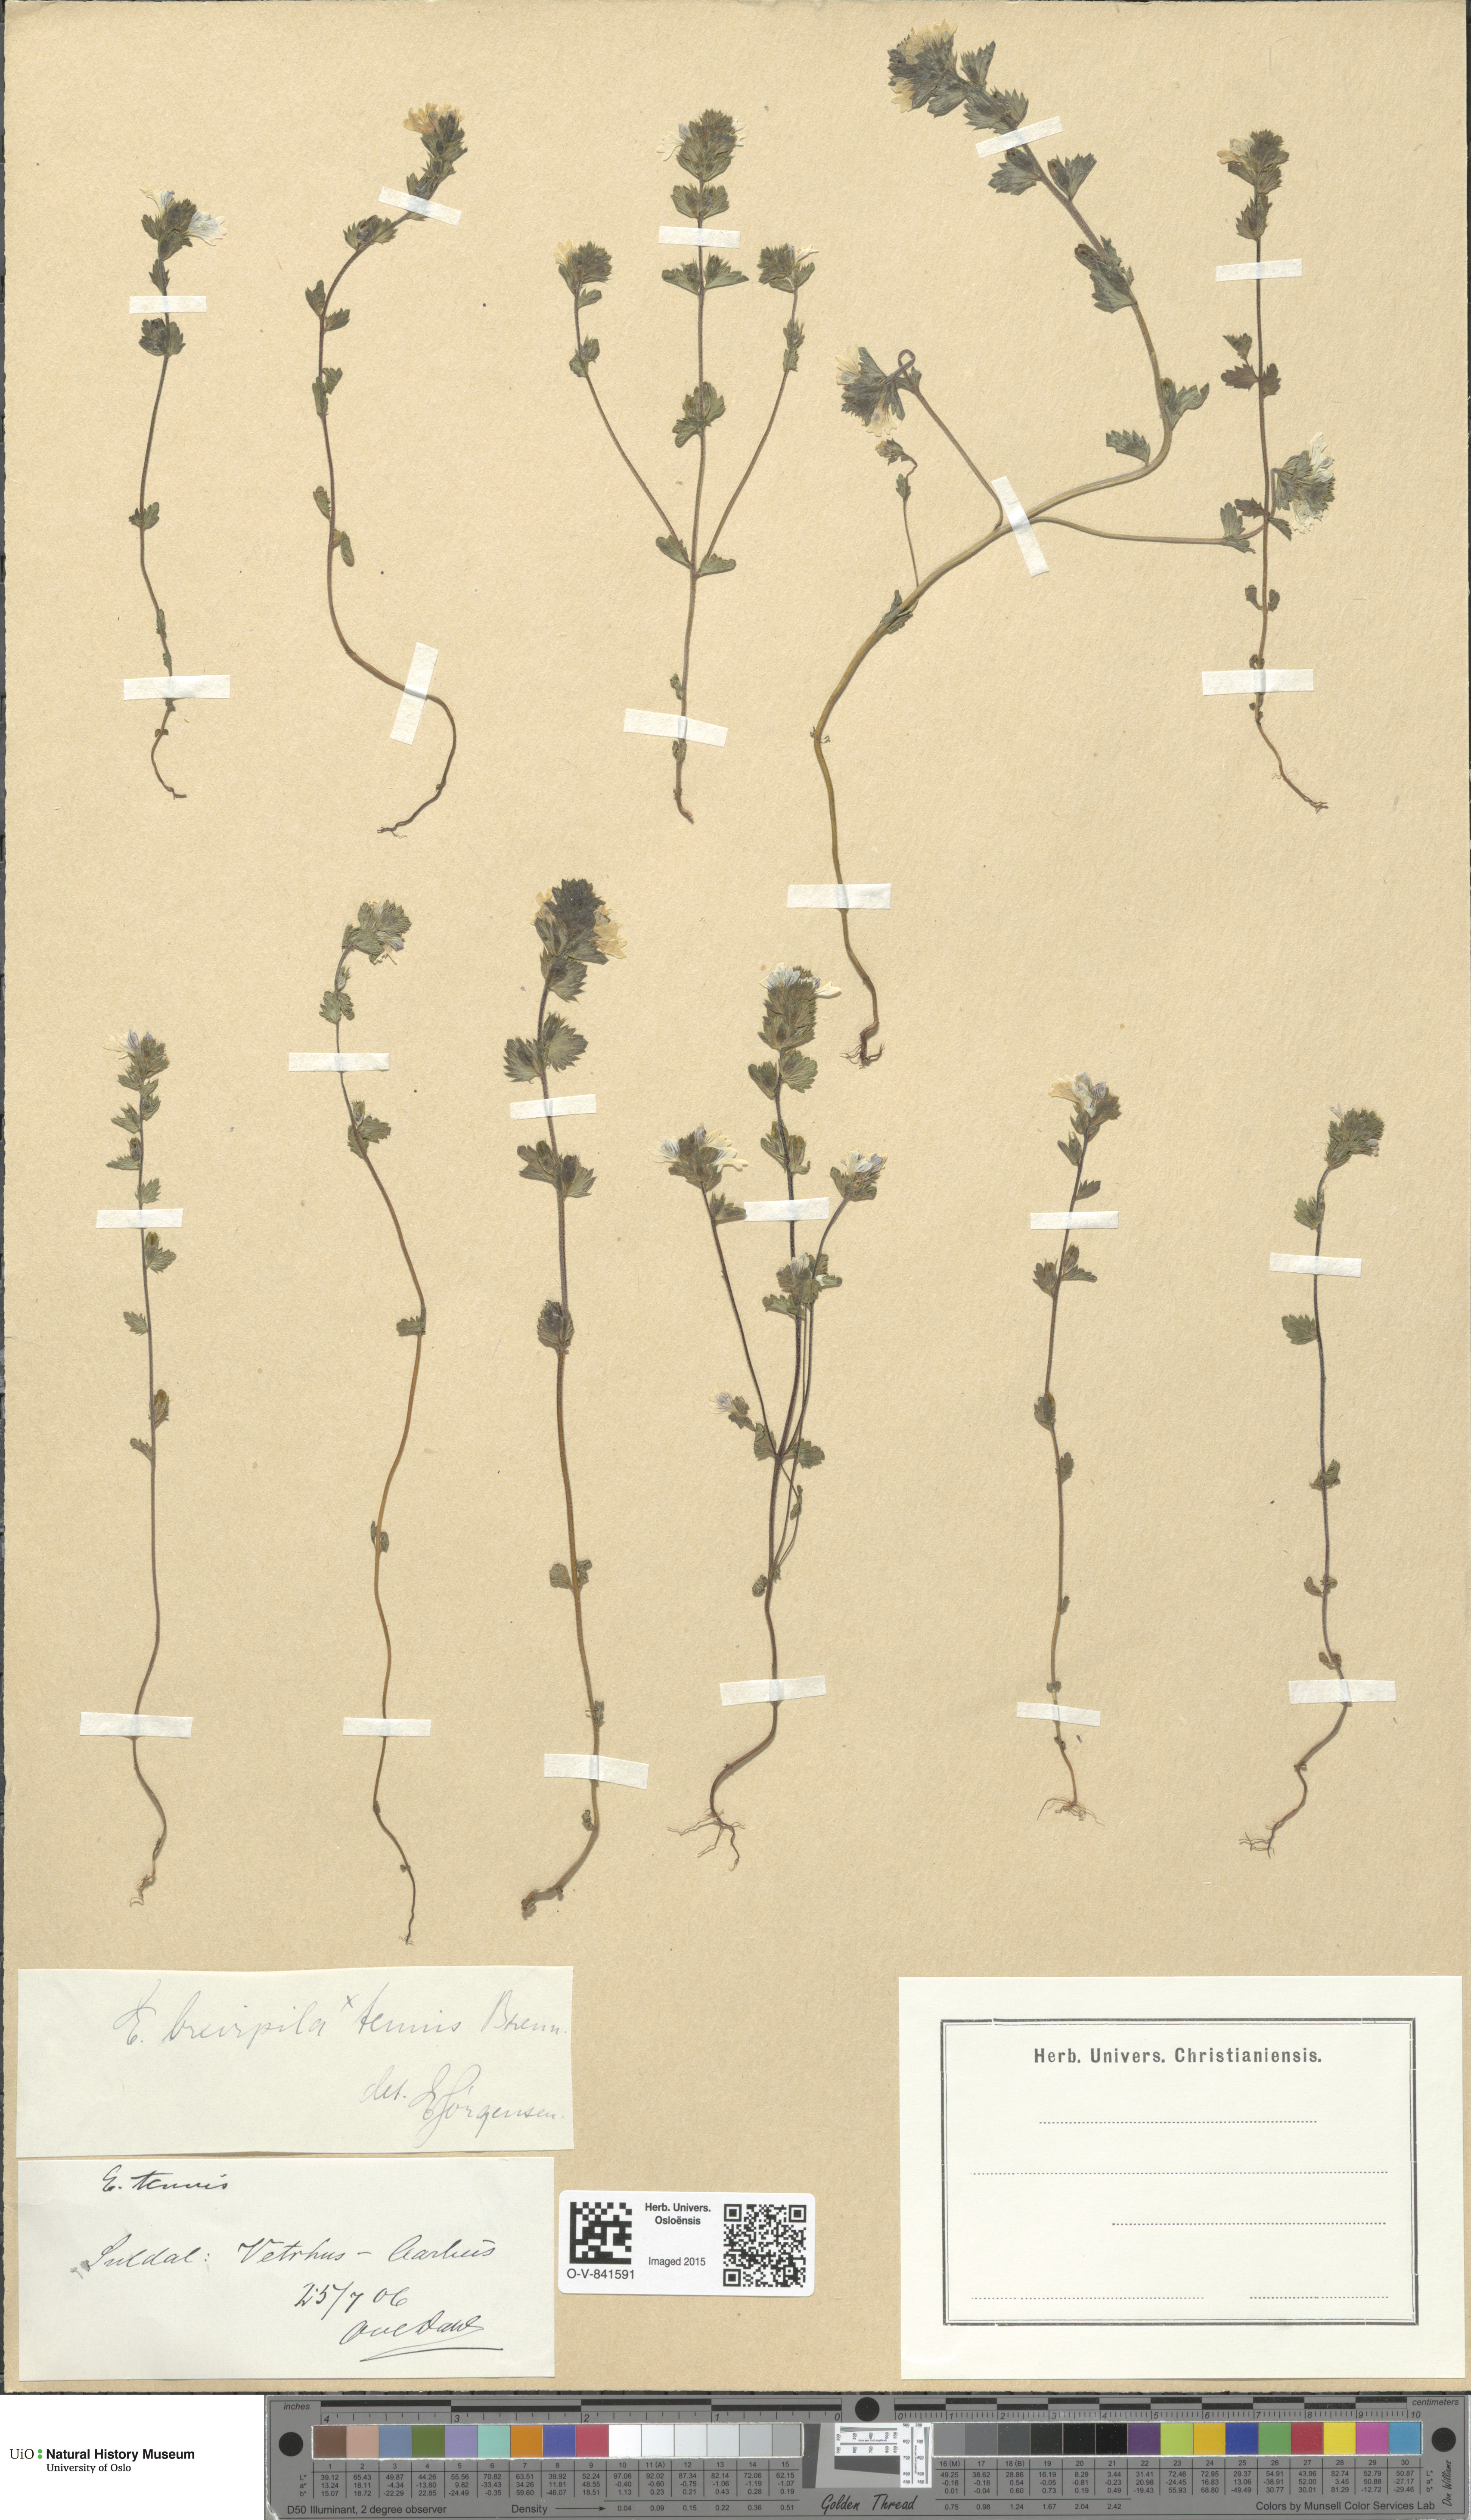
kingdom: Plantae
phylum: Tracheophyta
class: Magnoliopsida
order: Lamiales
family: Orobanchaceae
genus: Euphrasia
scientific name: Euphrasia vernalis
